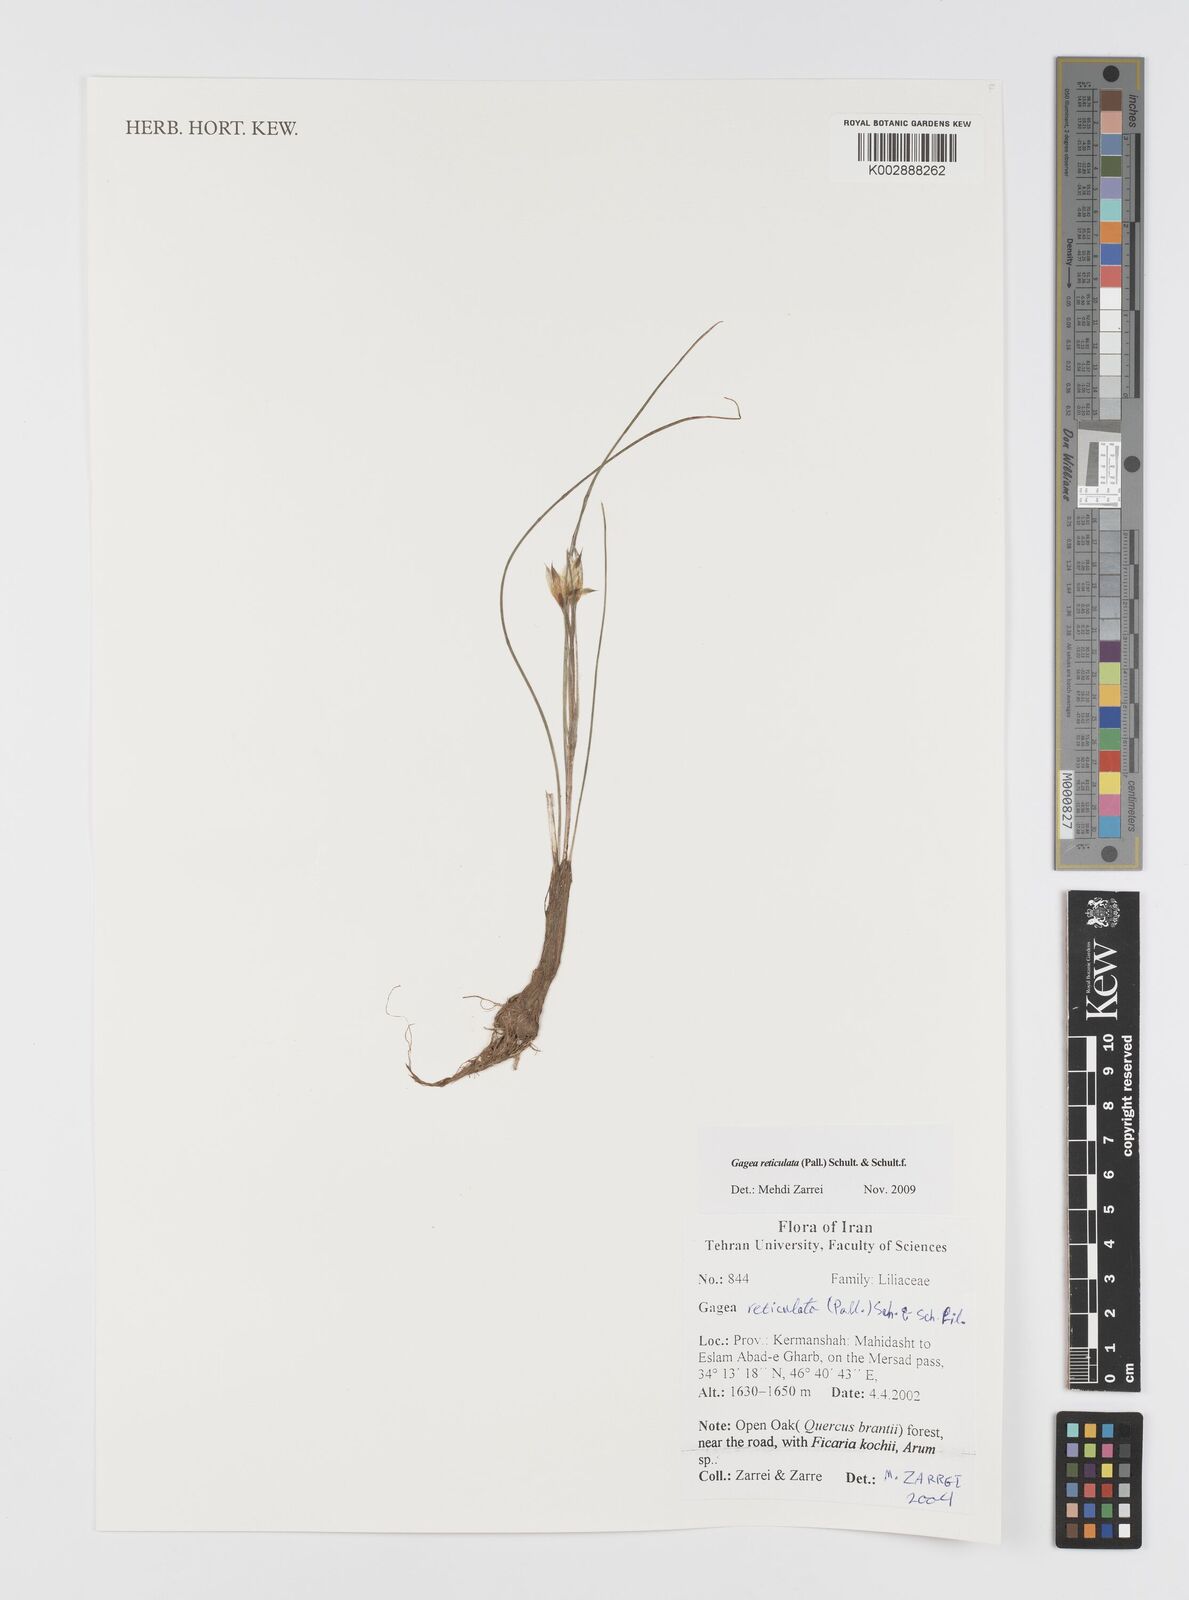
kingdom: Plantae
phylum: Tracheophyta
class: Liliopsida
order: Liliales
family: Liliaceae
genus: Gagea
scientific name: Gagea reticulata
